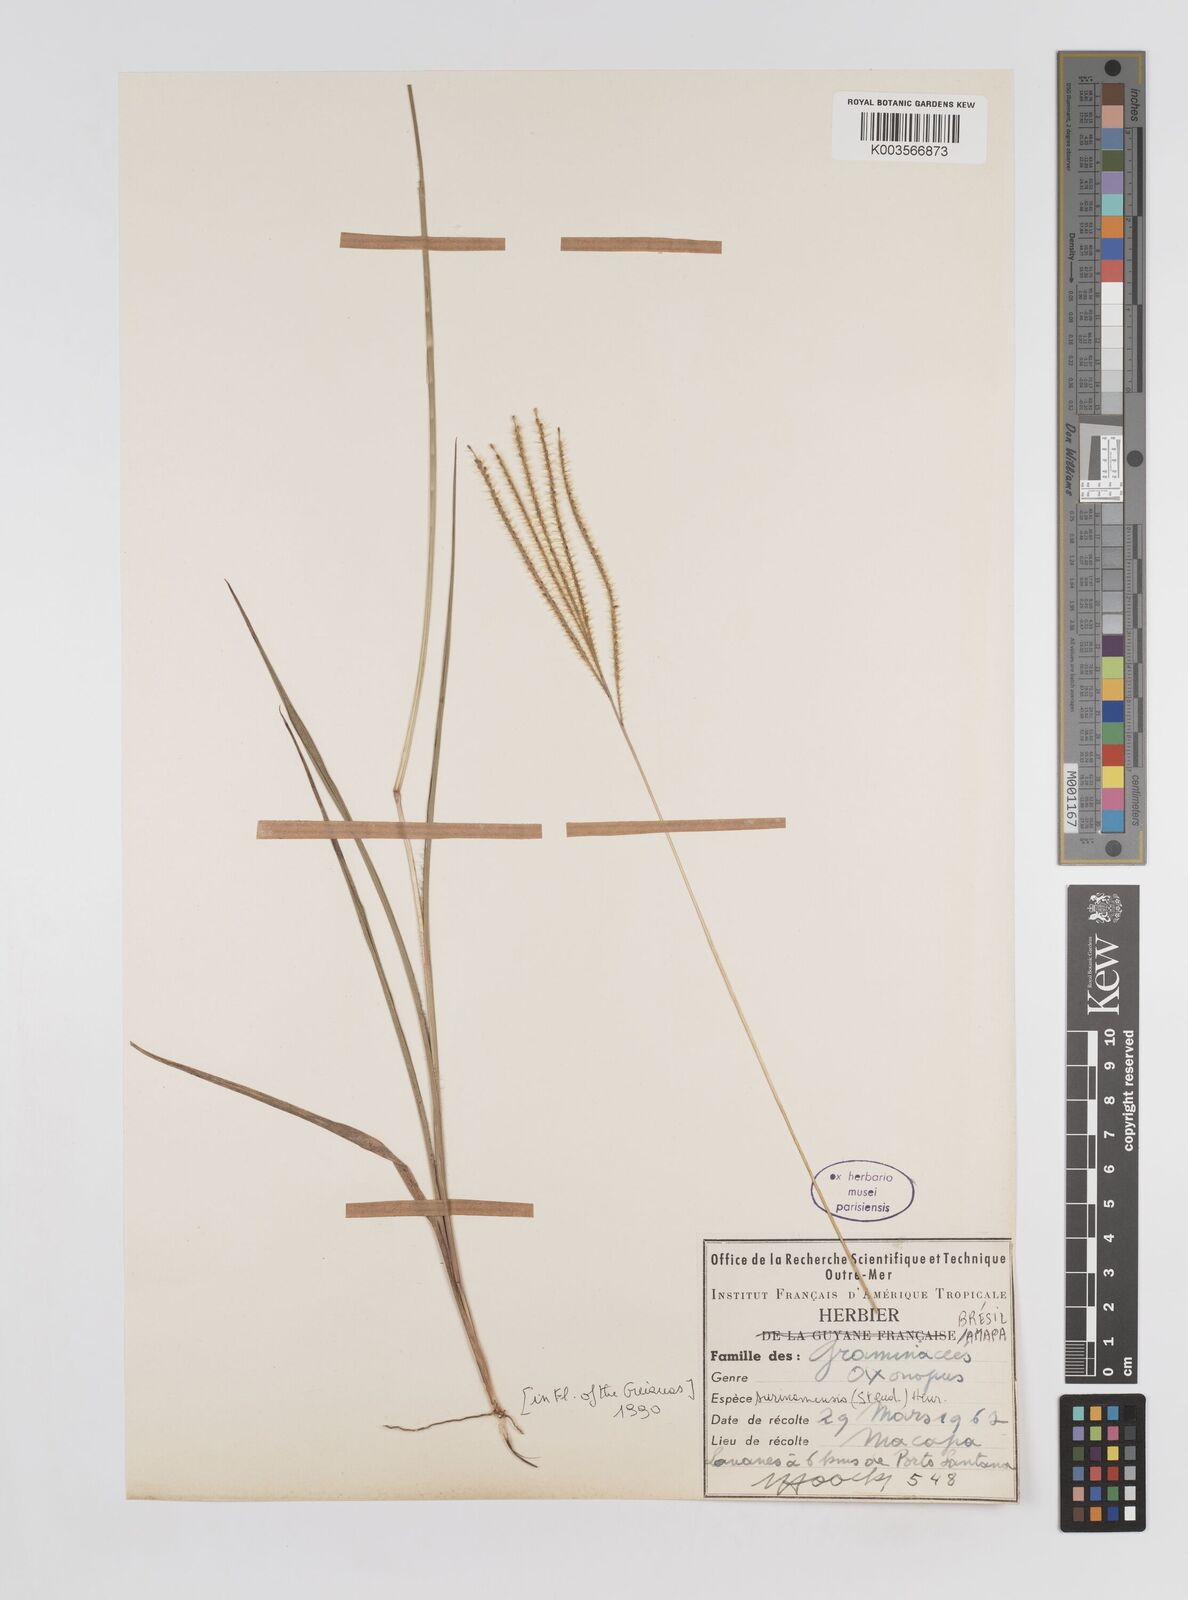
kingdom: Plantae
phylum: Tracheophyta
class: Liliopsida
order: Poales
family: Poaceae
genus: Axonopus
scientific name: Axonopus aureus
